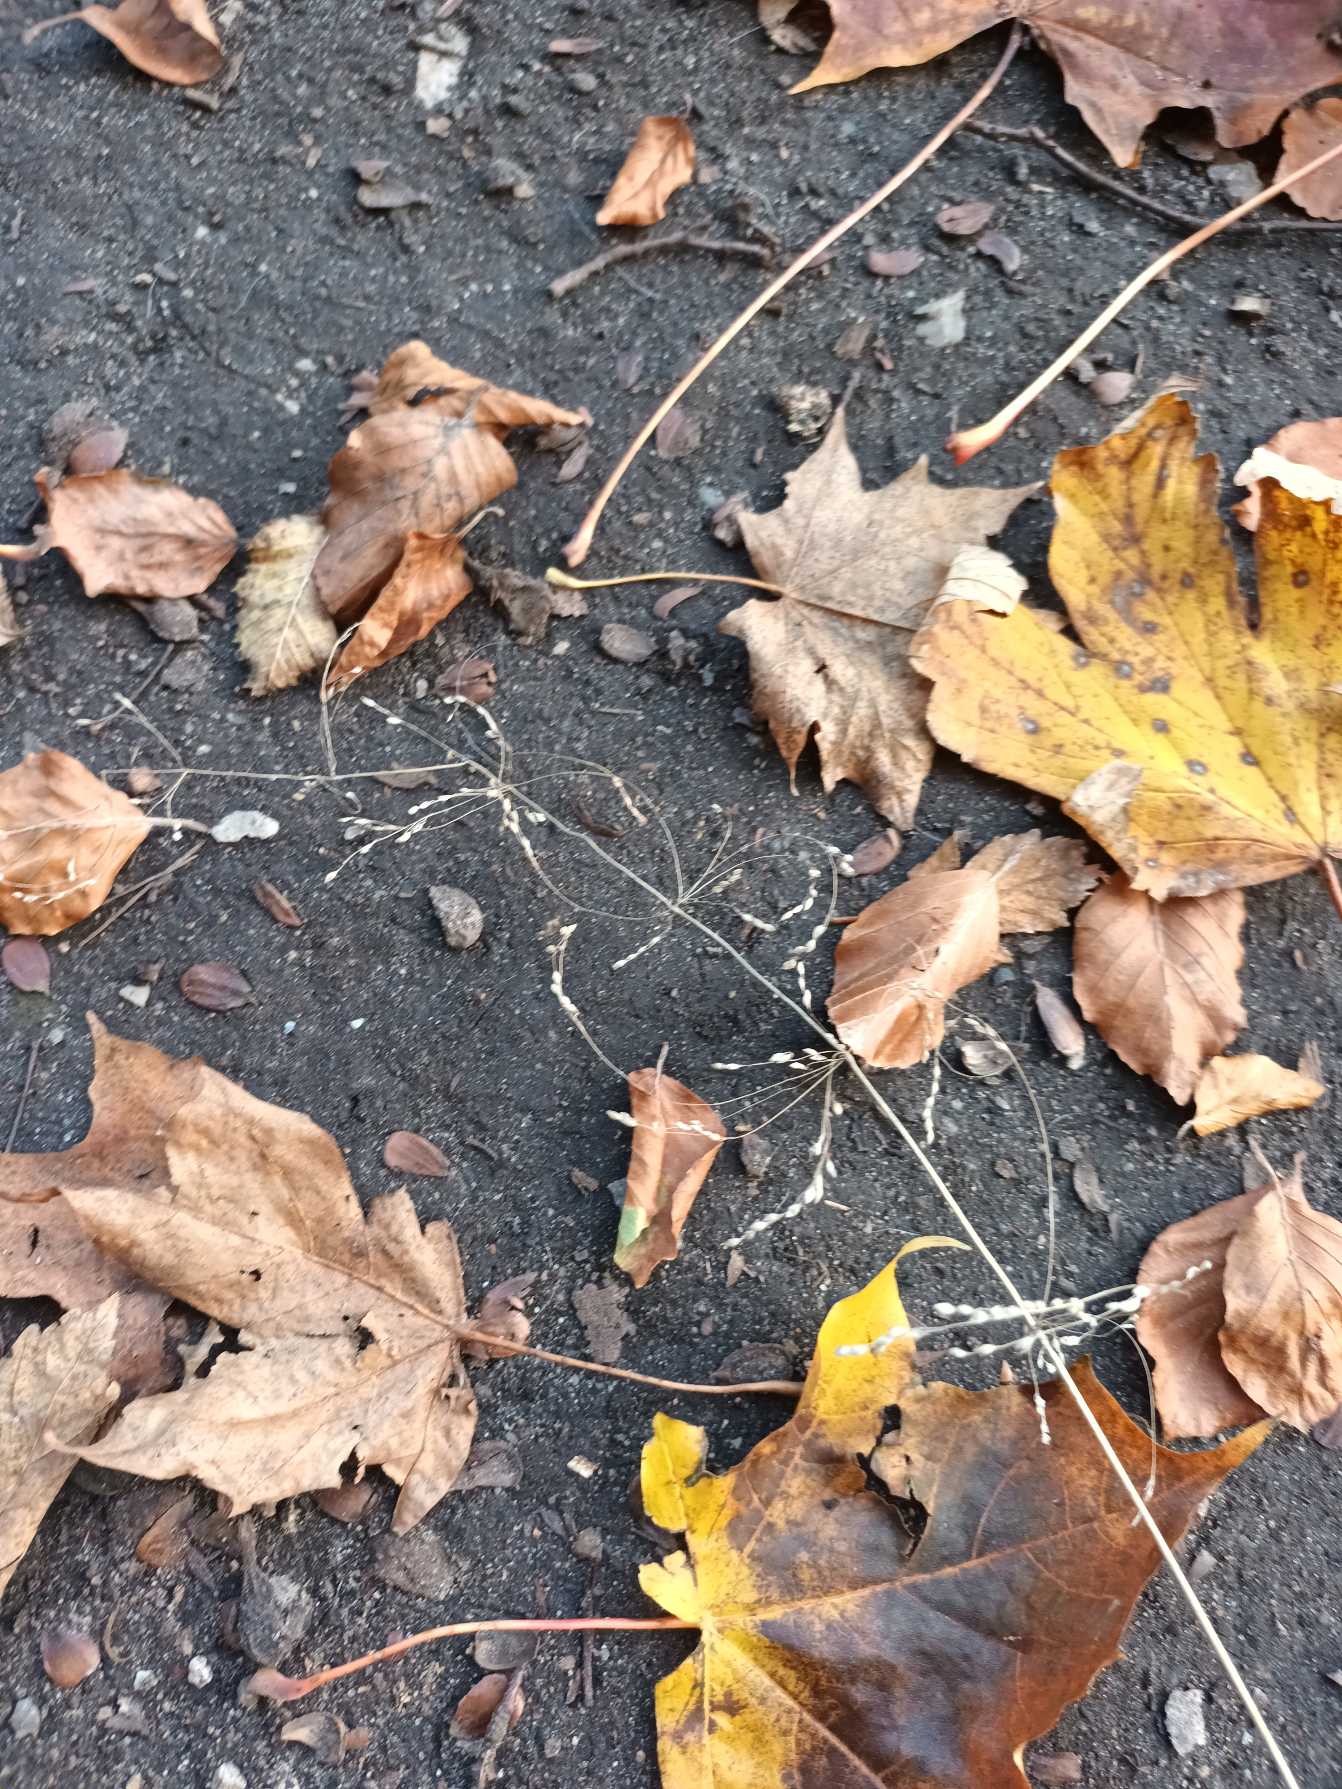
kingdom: Plantae
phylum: Tracheophyta
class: Liliopsida
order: Poales
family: Poaceae
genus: Milium
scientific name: Milium effusum
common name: Miliegræs
